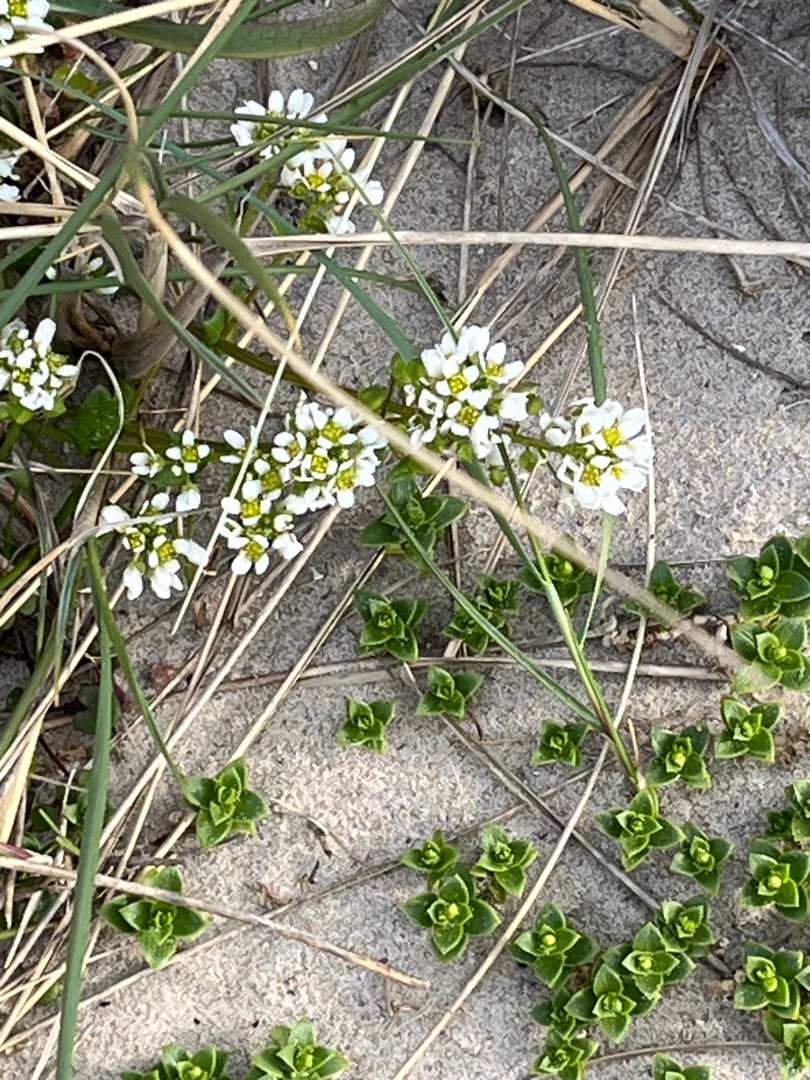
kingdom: Plantae
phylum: Tracheophyta
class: Magnoliopsida
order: Brassicales
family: Brassicaceae
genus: Cochlearia
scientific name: Cochlearia officinalis
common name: Læge-kokleare (underart)
